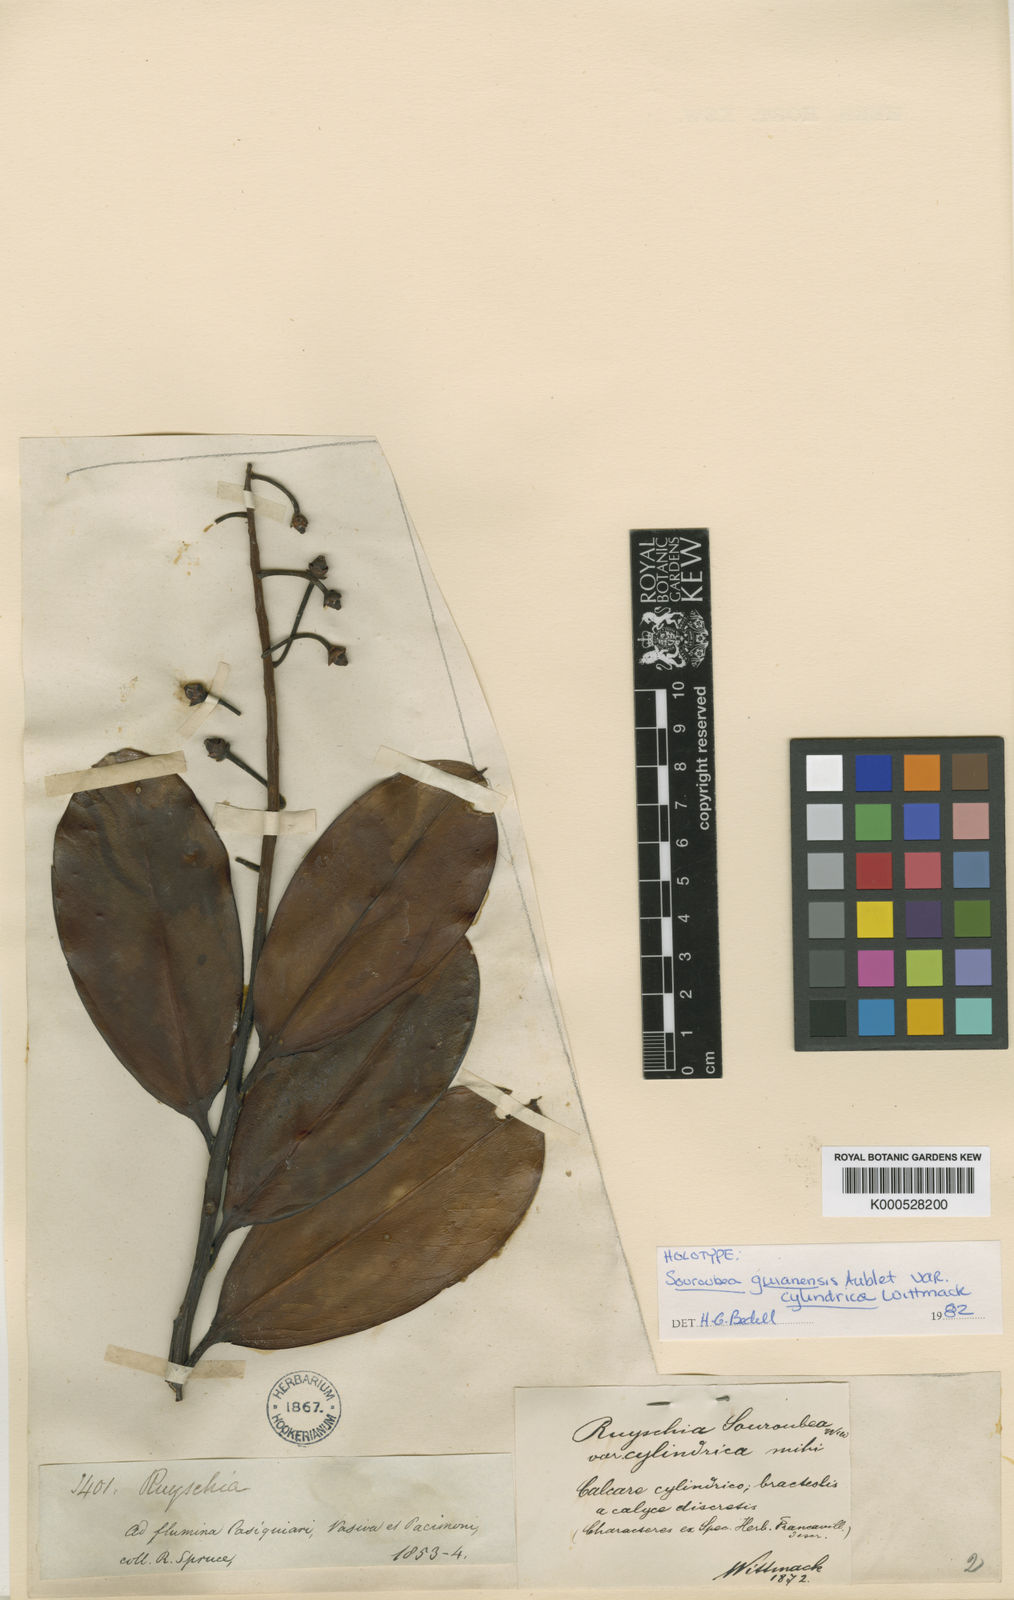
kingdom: Plantae
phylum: Tracheophyta
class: Magnoliopsida
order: Ericales
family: Marcgraviaceae
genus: Souroubea
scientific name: Souroubea guianensis
